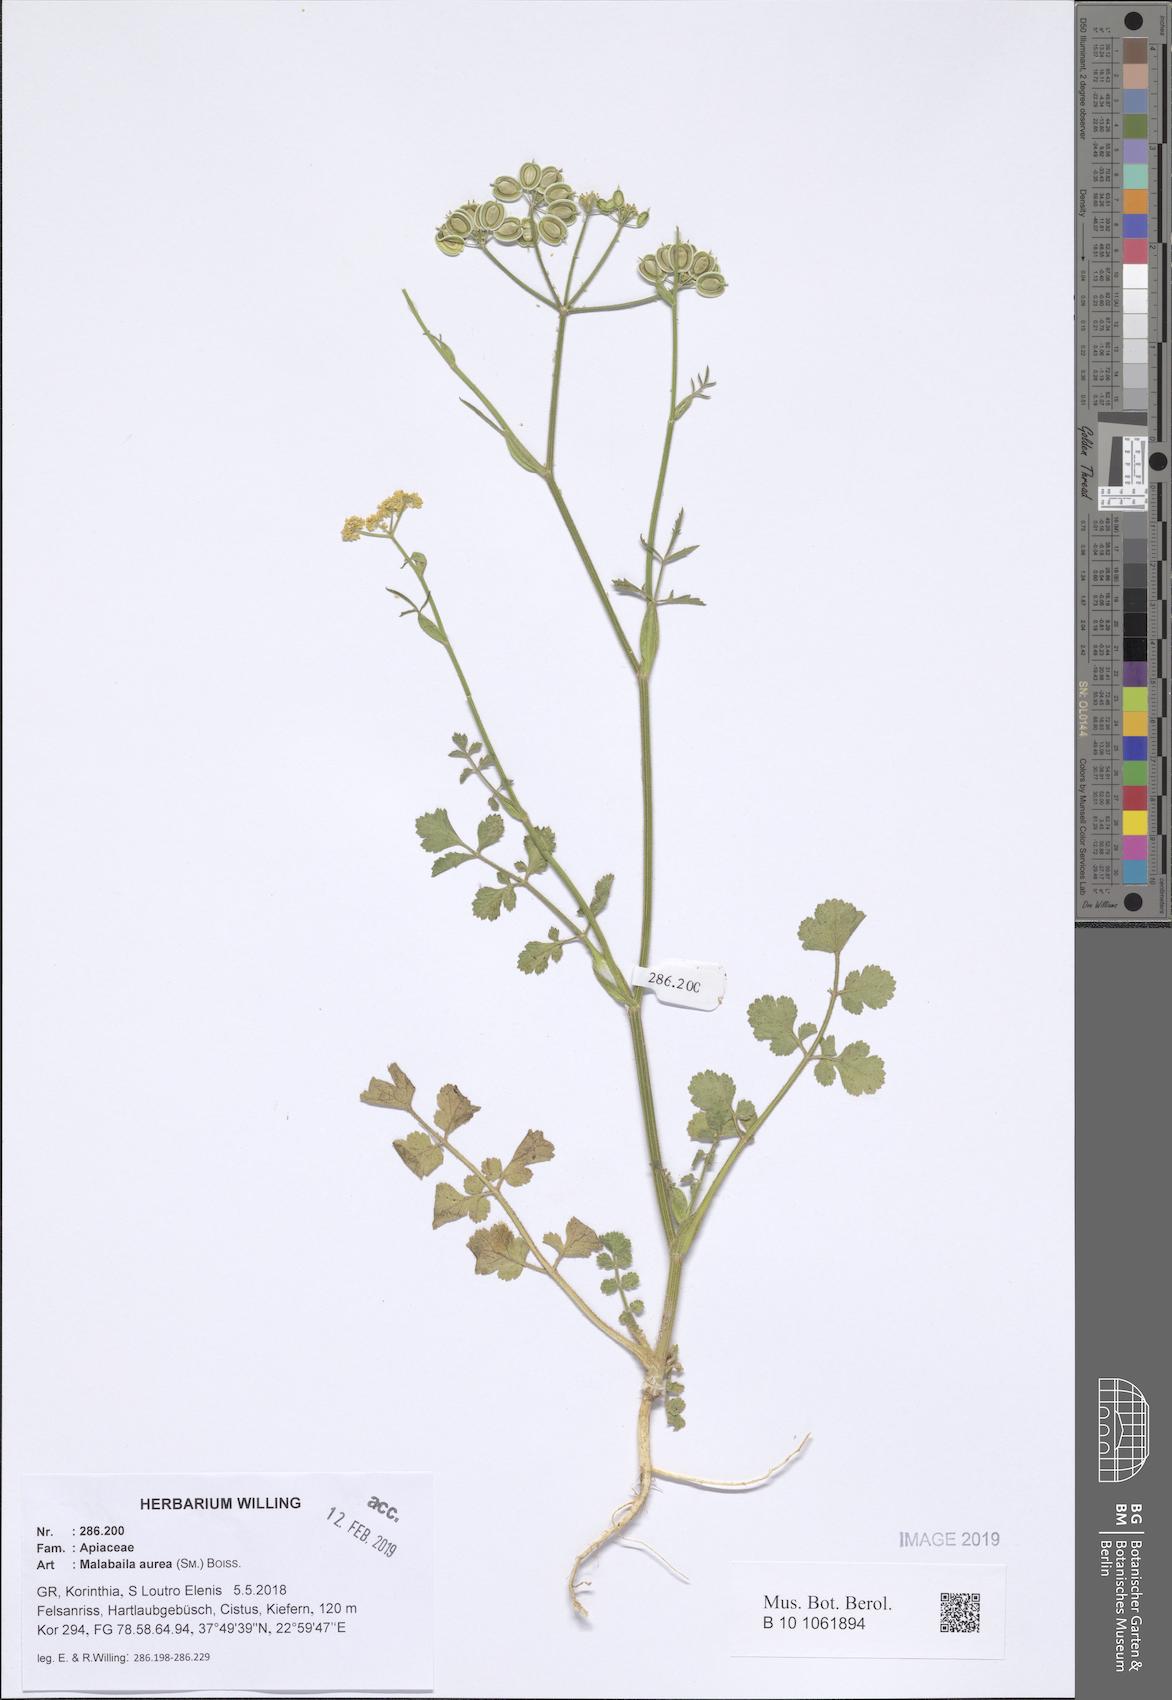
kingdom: Plantae
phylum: Tracheophyta
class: Magnoliopsida
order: Apiales
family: Apiaceae
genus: Leiotulus
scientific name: Leiotulus aureus
